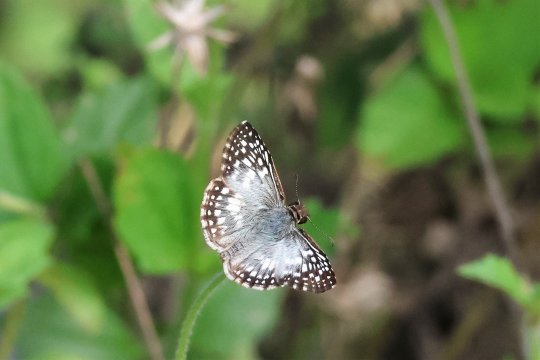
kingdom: Animalia
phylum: Arthropoda
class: Insecta
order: Lepidoptera
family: Hesperiidae
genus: Pyrgus
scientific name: Pyrgus oileus
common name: Tropical Checkered-Skipper
